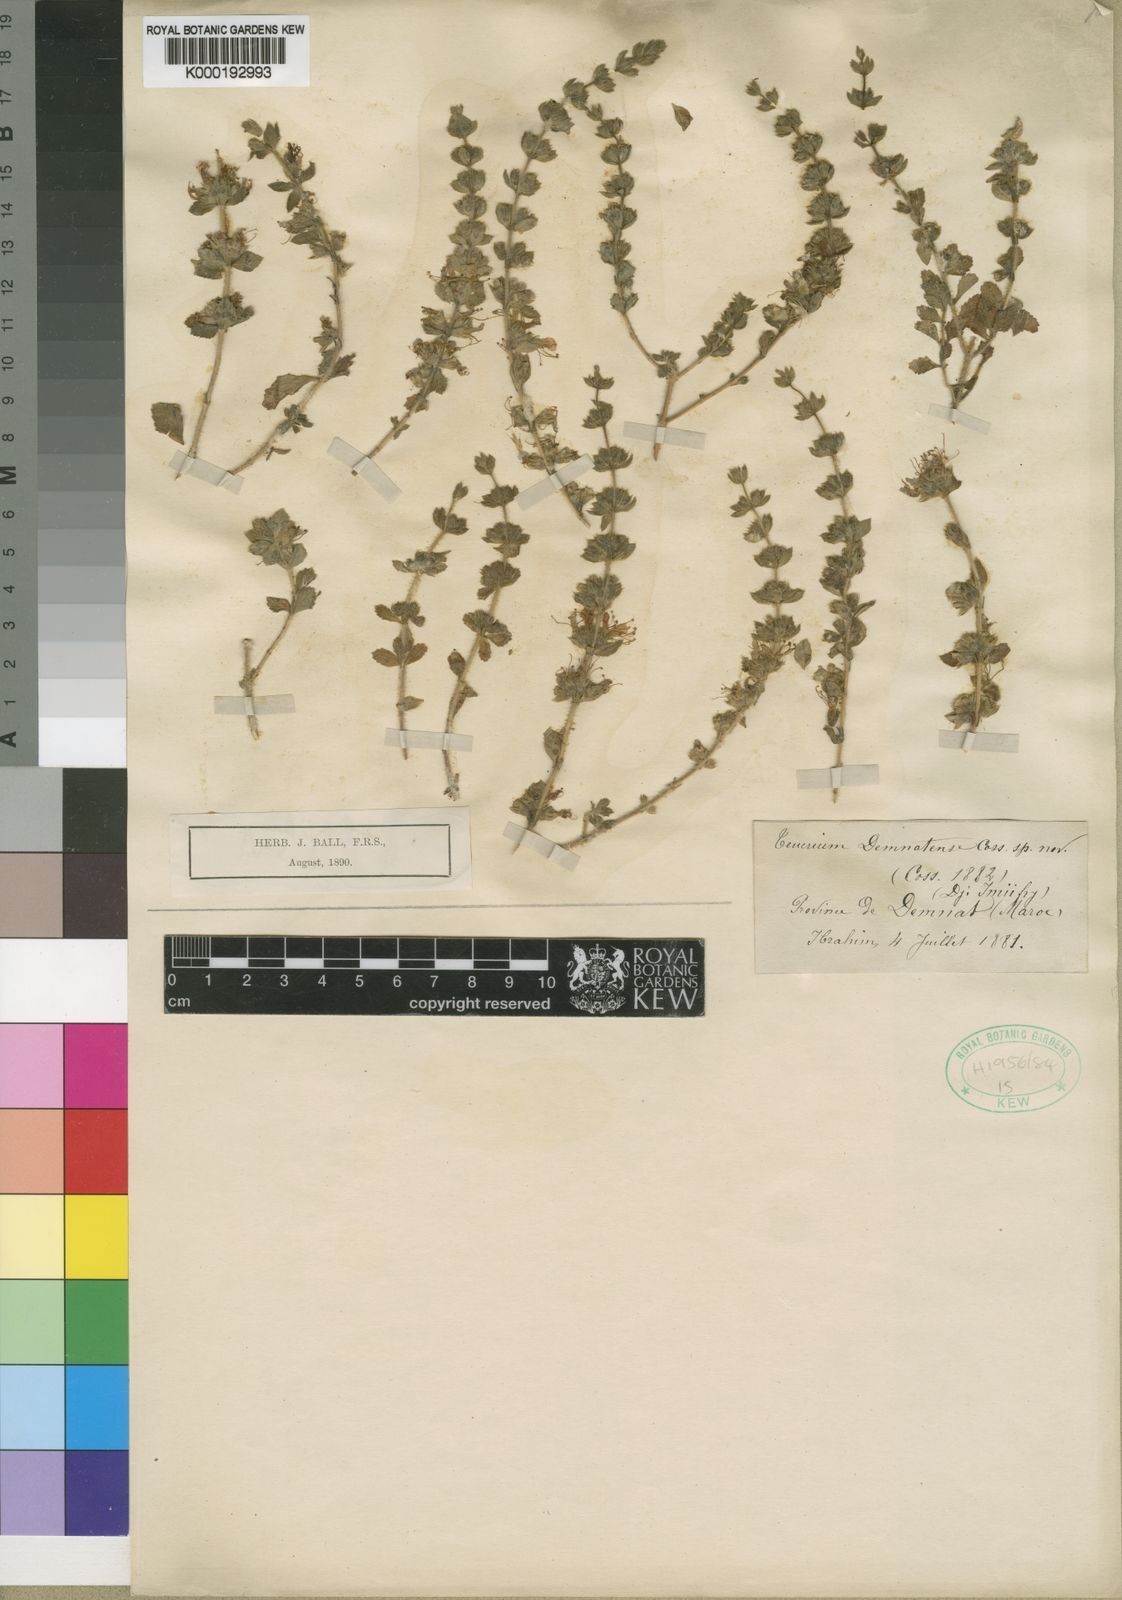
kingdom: Plantae
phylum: Tracheophyta
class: Magnoliopsida
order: Lamiales
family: Lamiaceae
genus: Teucrium
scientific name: Teucrium
